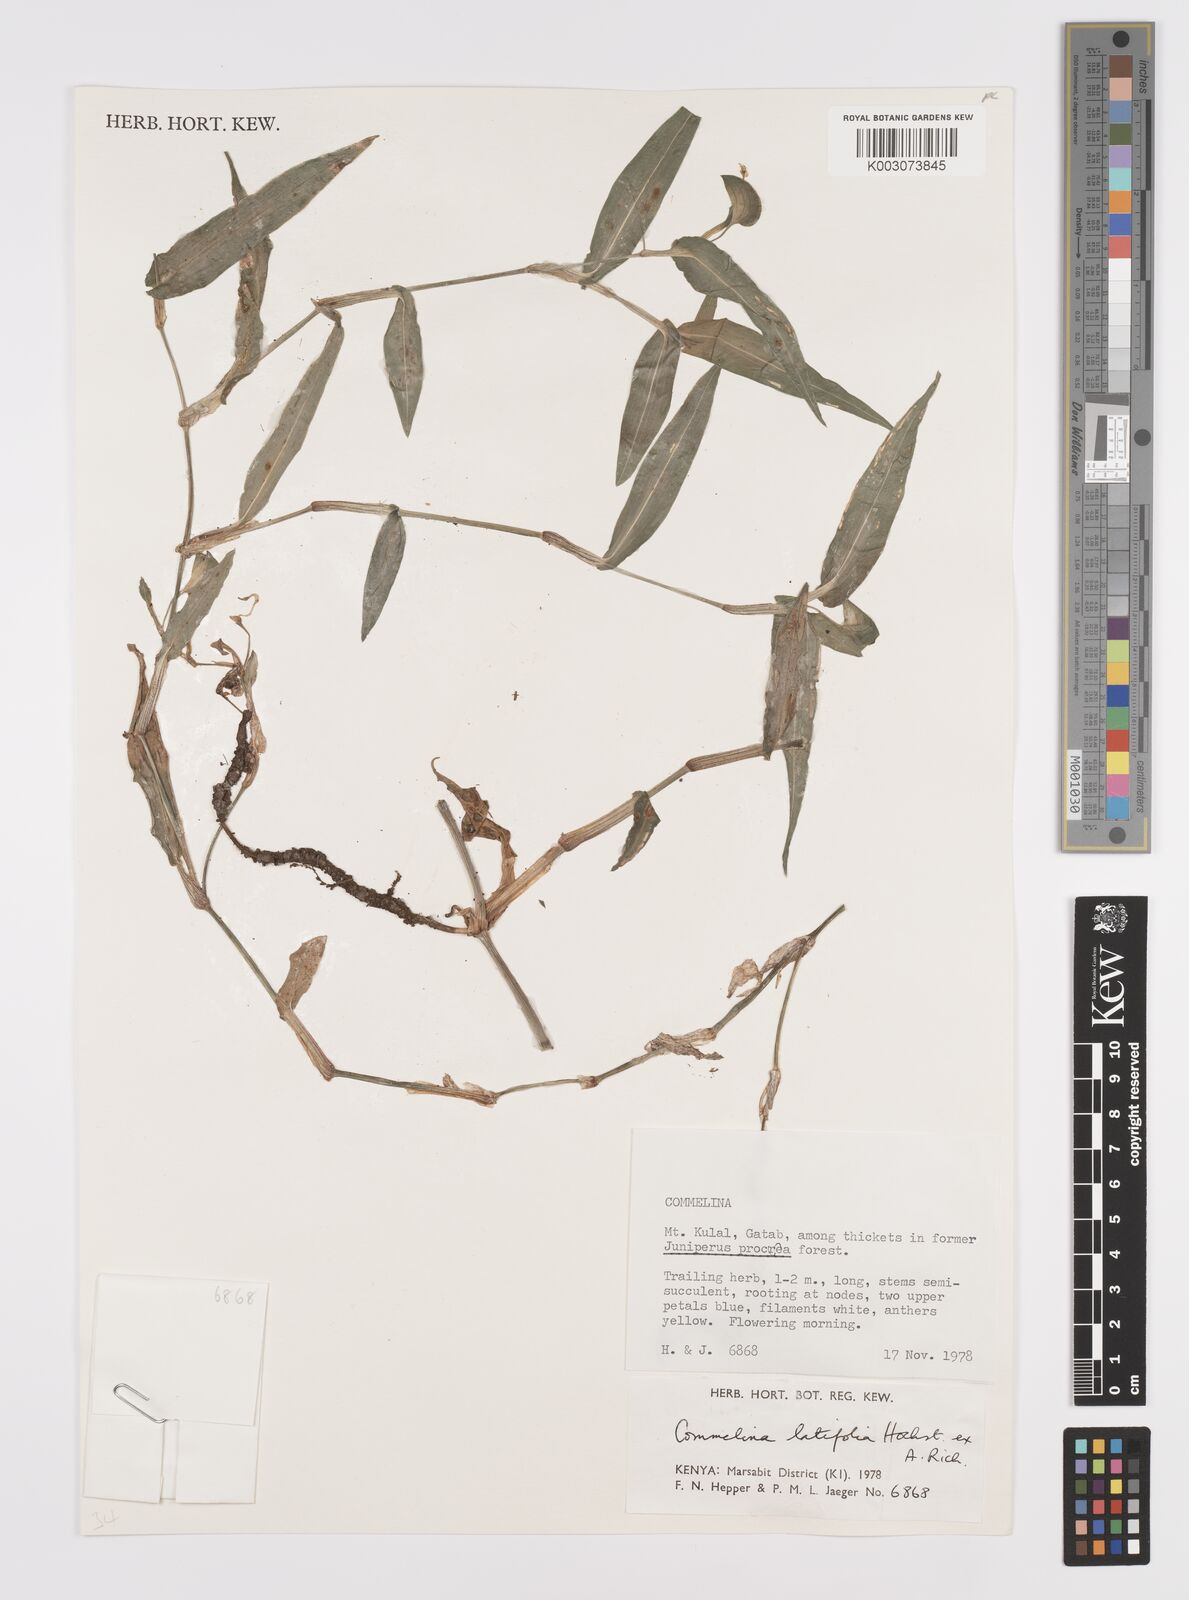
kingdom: Plantae
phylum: Tracheophyta
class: Liliopsida
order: Commelinales
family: Commelinaceae
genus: Commelina
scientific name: Commelina latifolia
